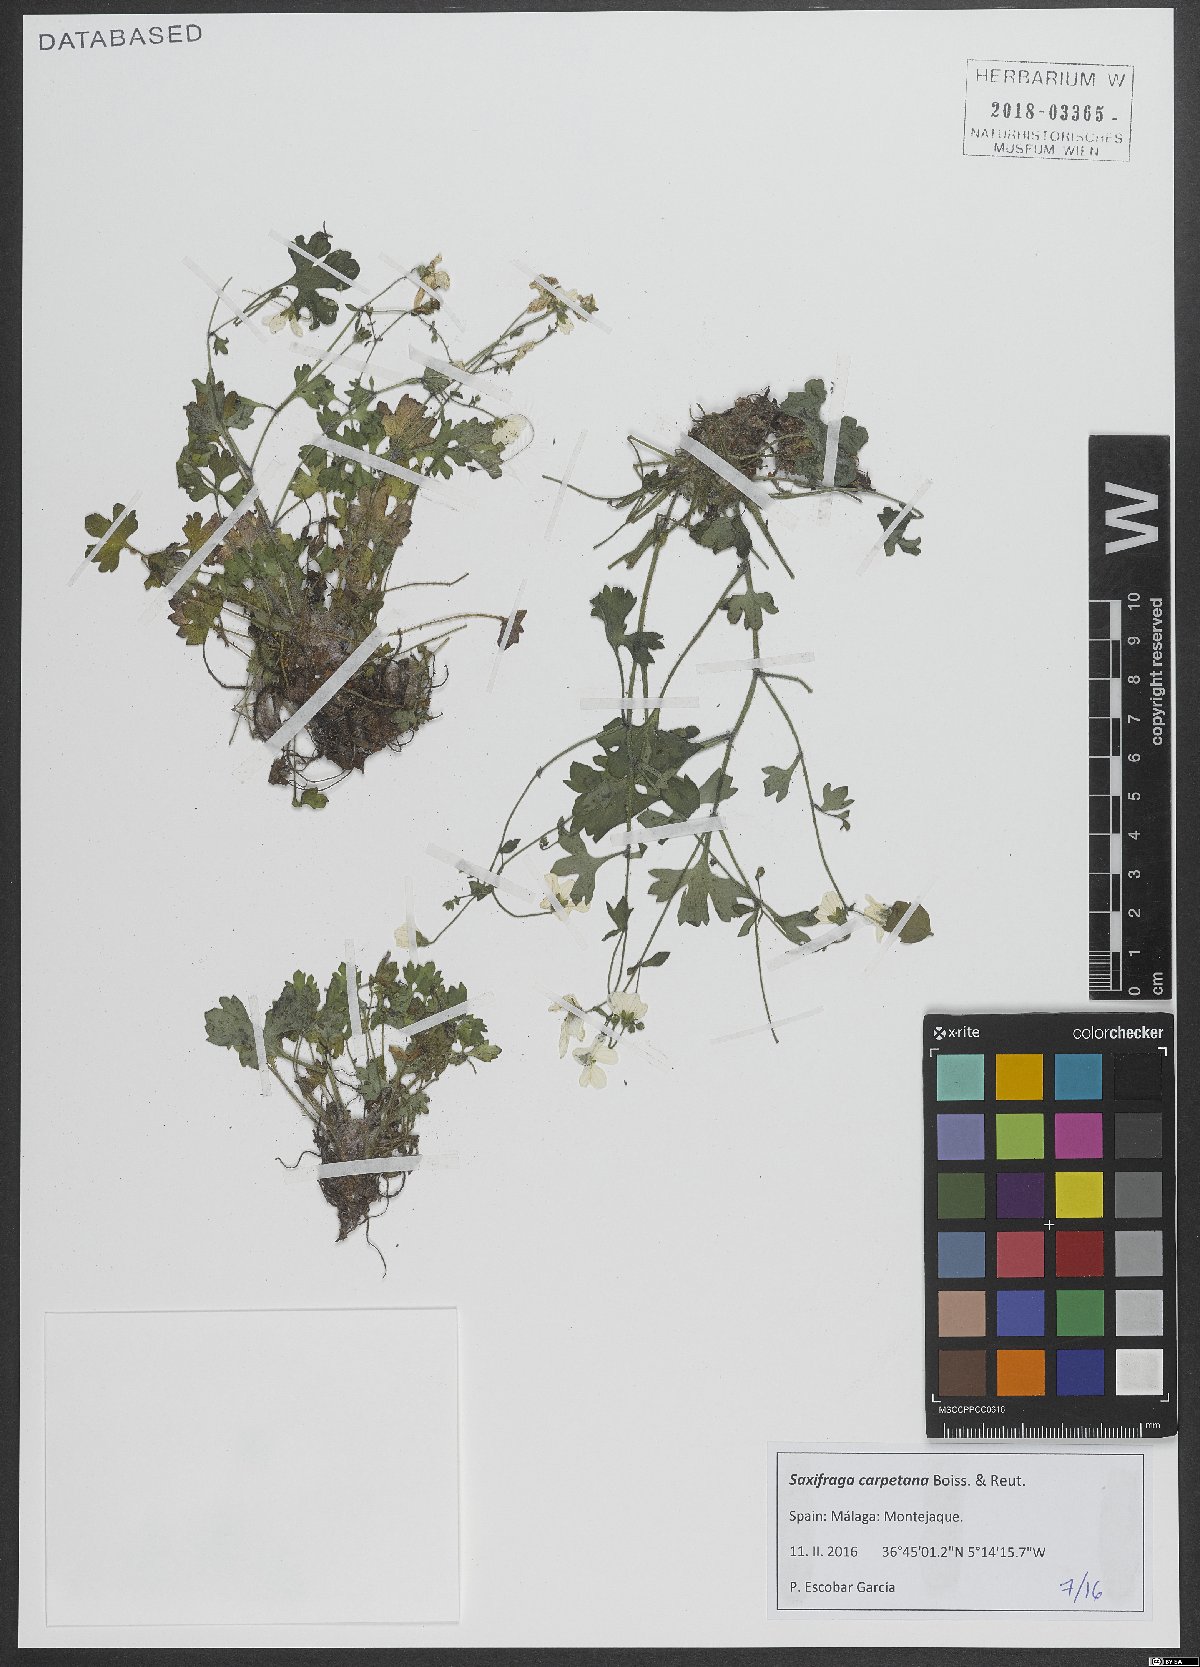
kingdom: Plantae
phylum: Tracheophyta
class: Magnoliopsida
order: Saxifragales
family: Saxifragaceae
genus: Saxifraga
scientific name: Saxifraga carpetana
